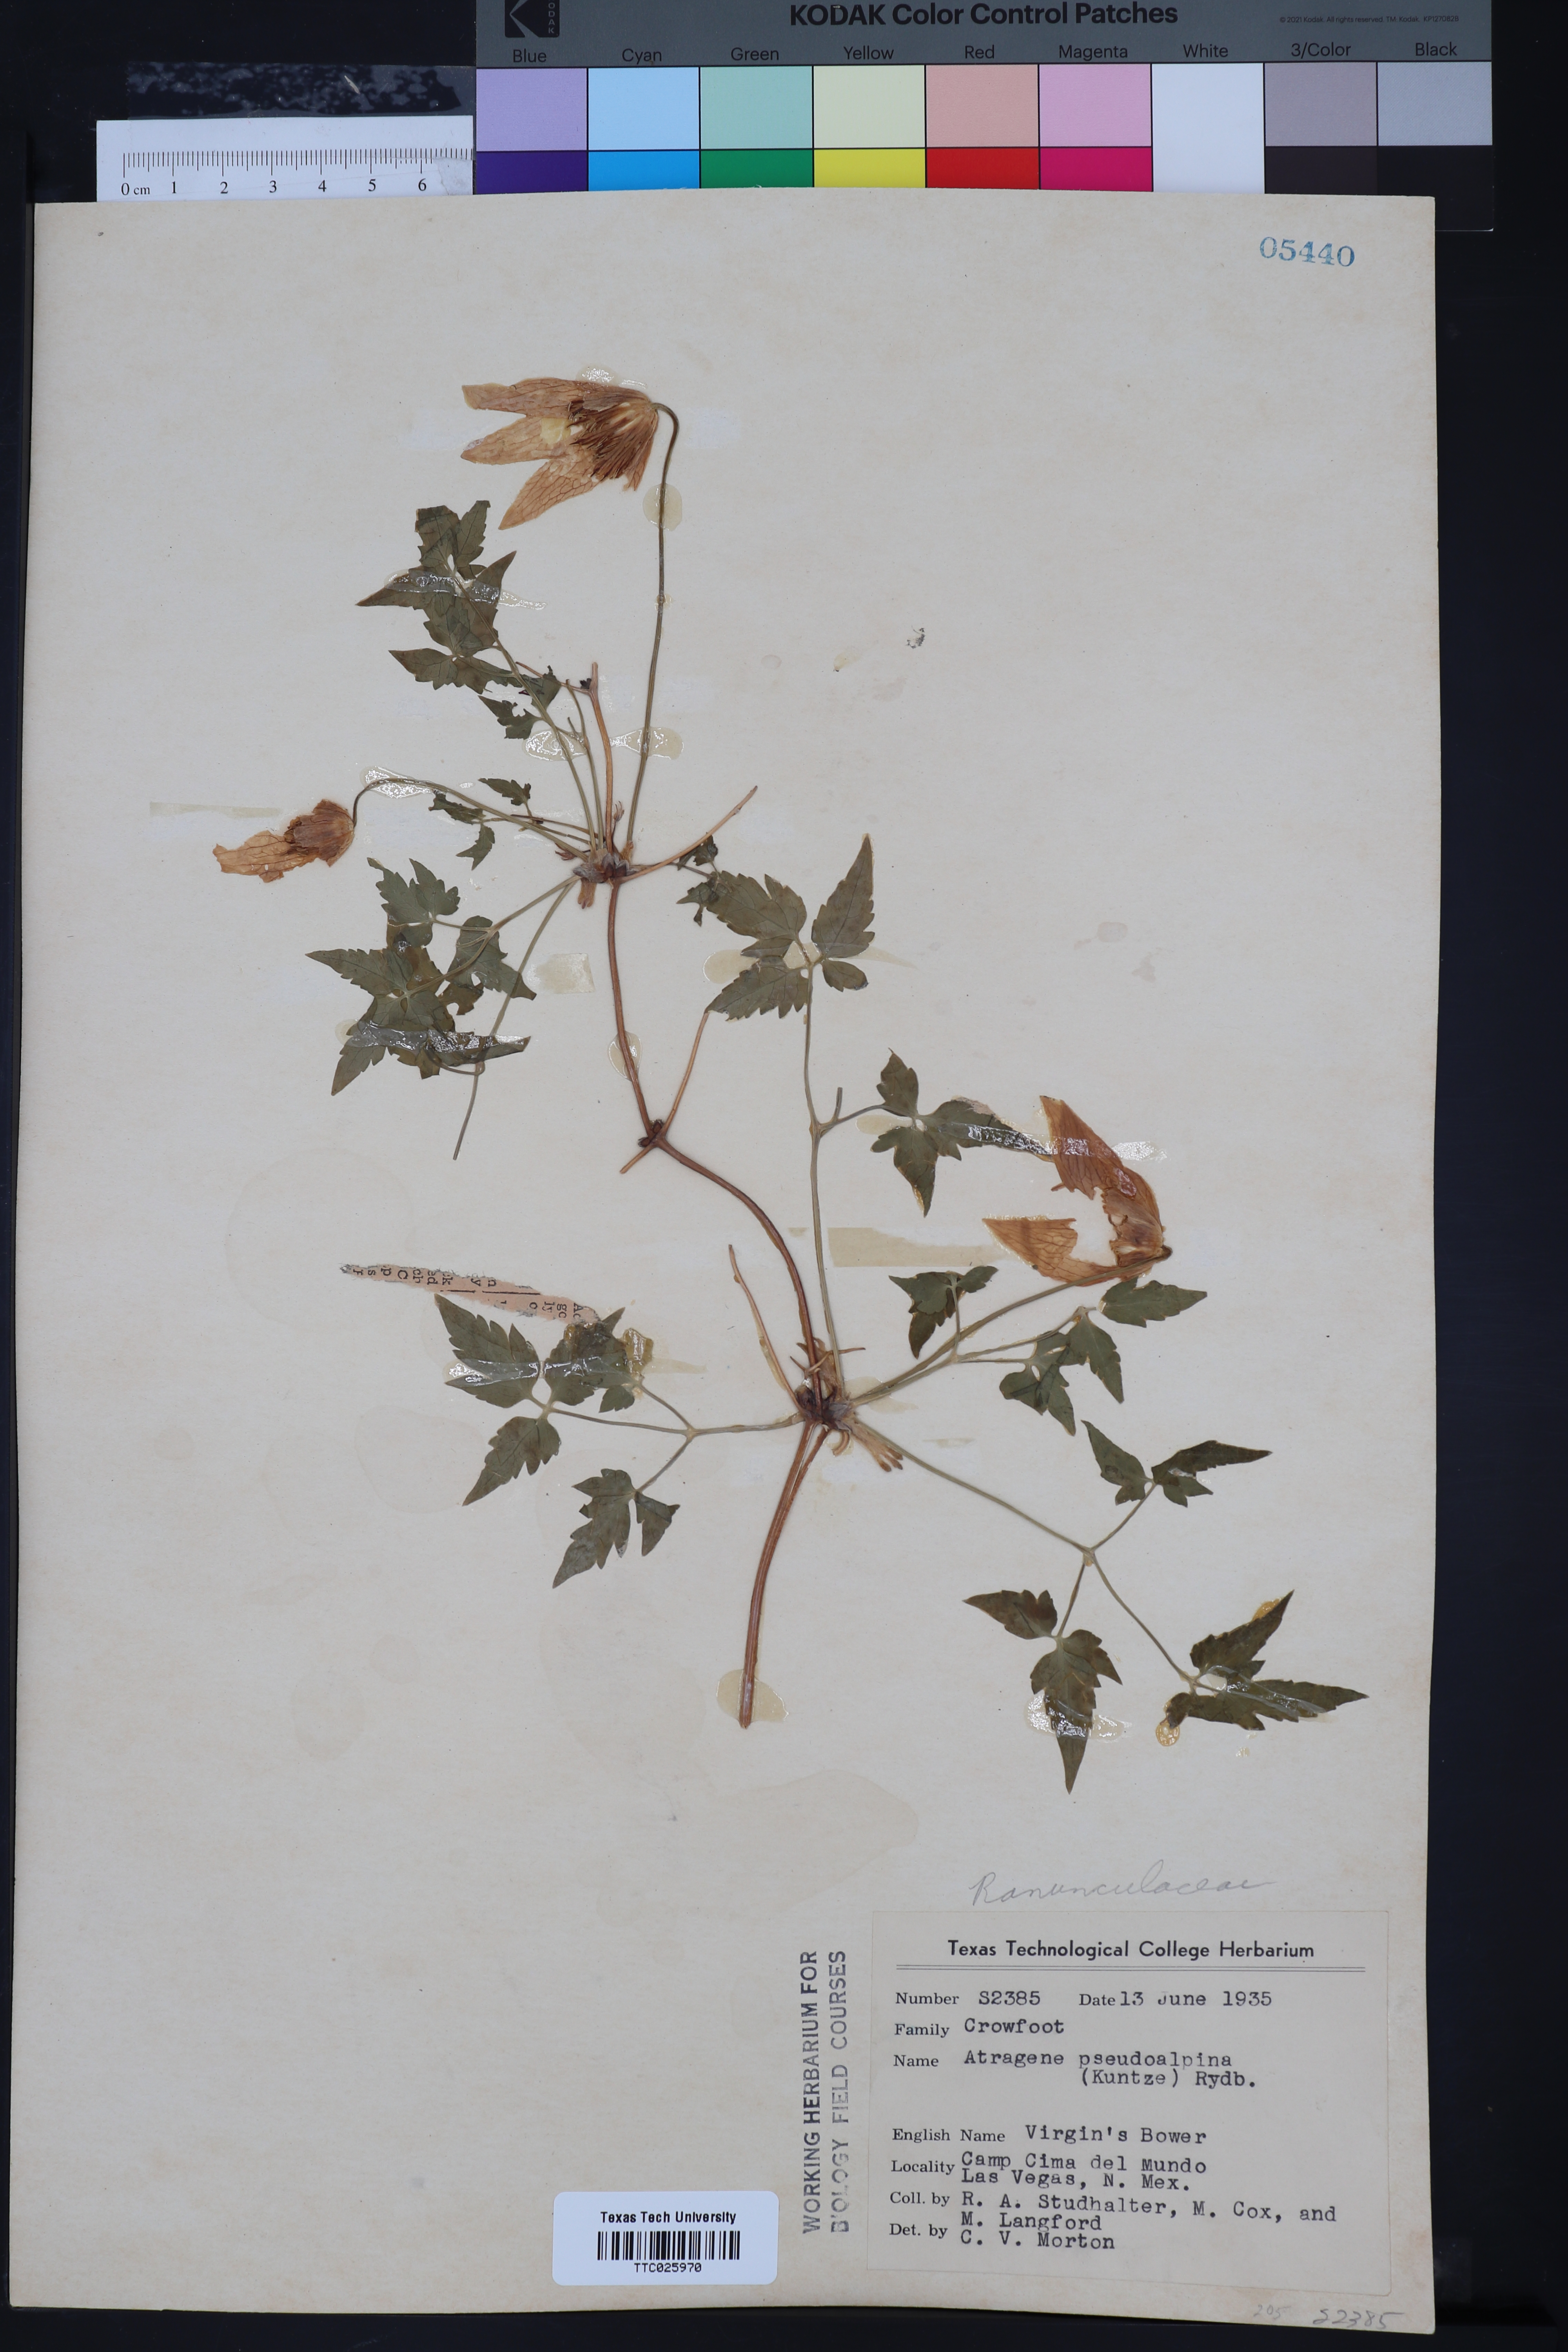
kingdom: Plantae
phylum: Tracheophyta
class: Magnoliopsida
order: Ranunculales
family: Ranunculaceae
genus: Clematis
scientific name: Clematis columbiana
